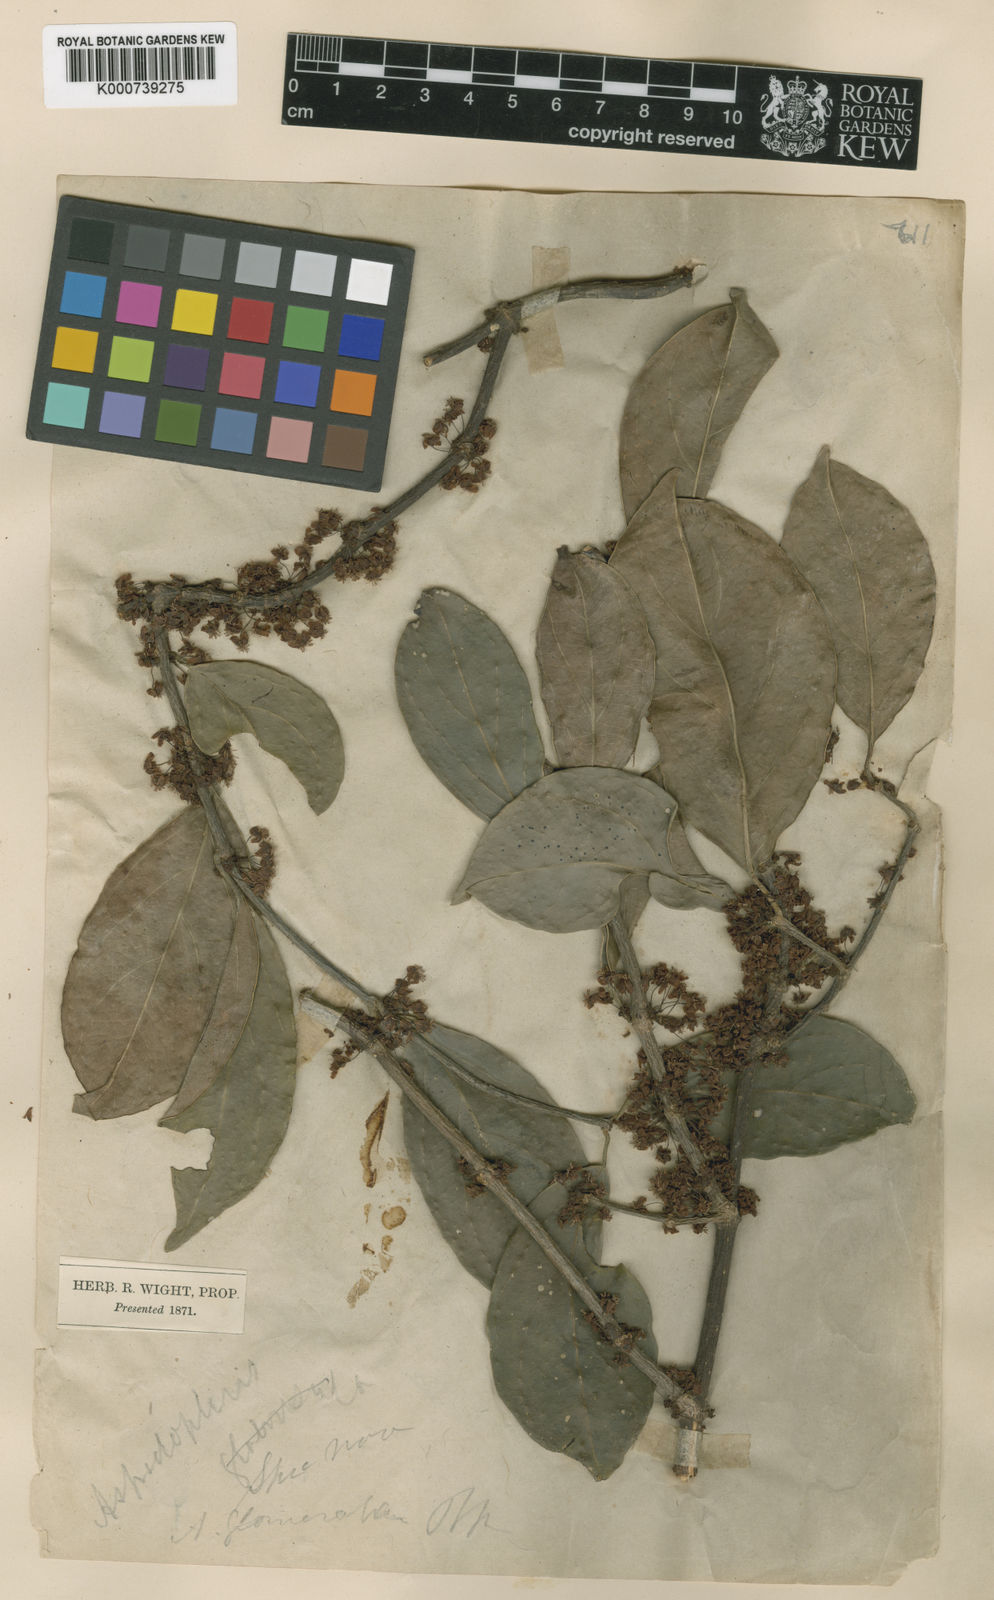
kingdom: Plantae
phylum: Tracheophyta
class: Magnoliopsida
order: Malpighiales
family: Malpighiaceae
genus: Aspidopterys
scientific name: Aspidopterys canarensis
